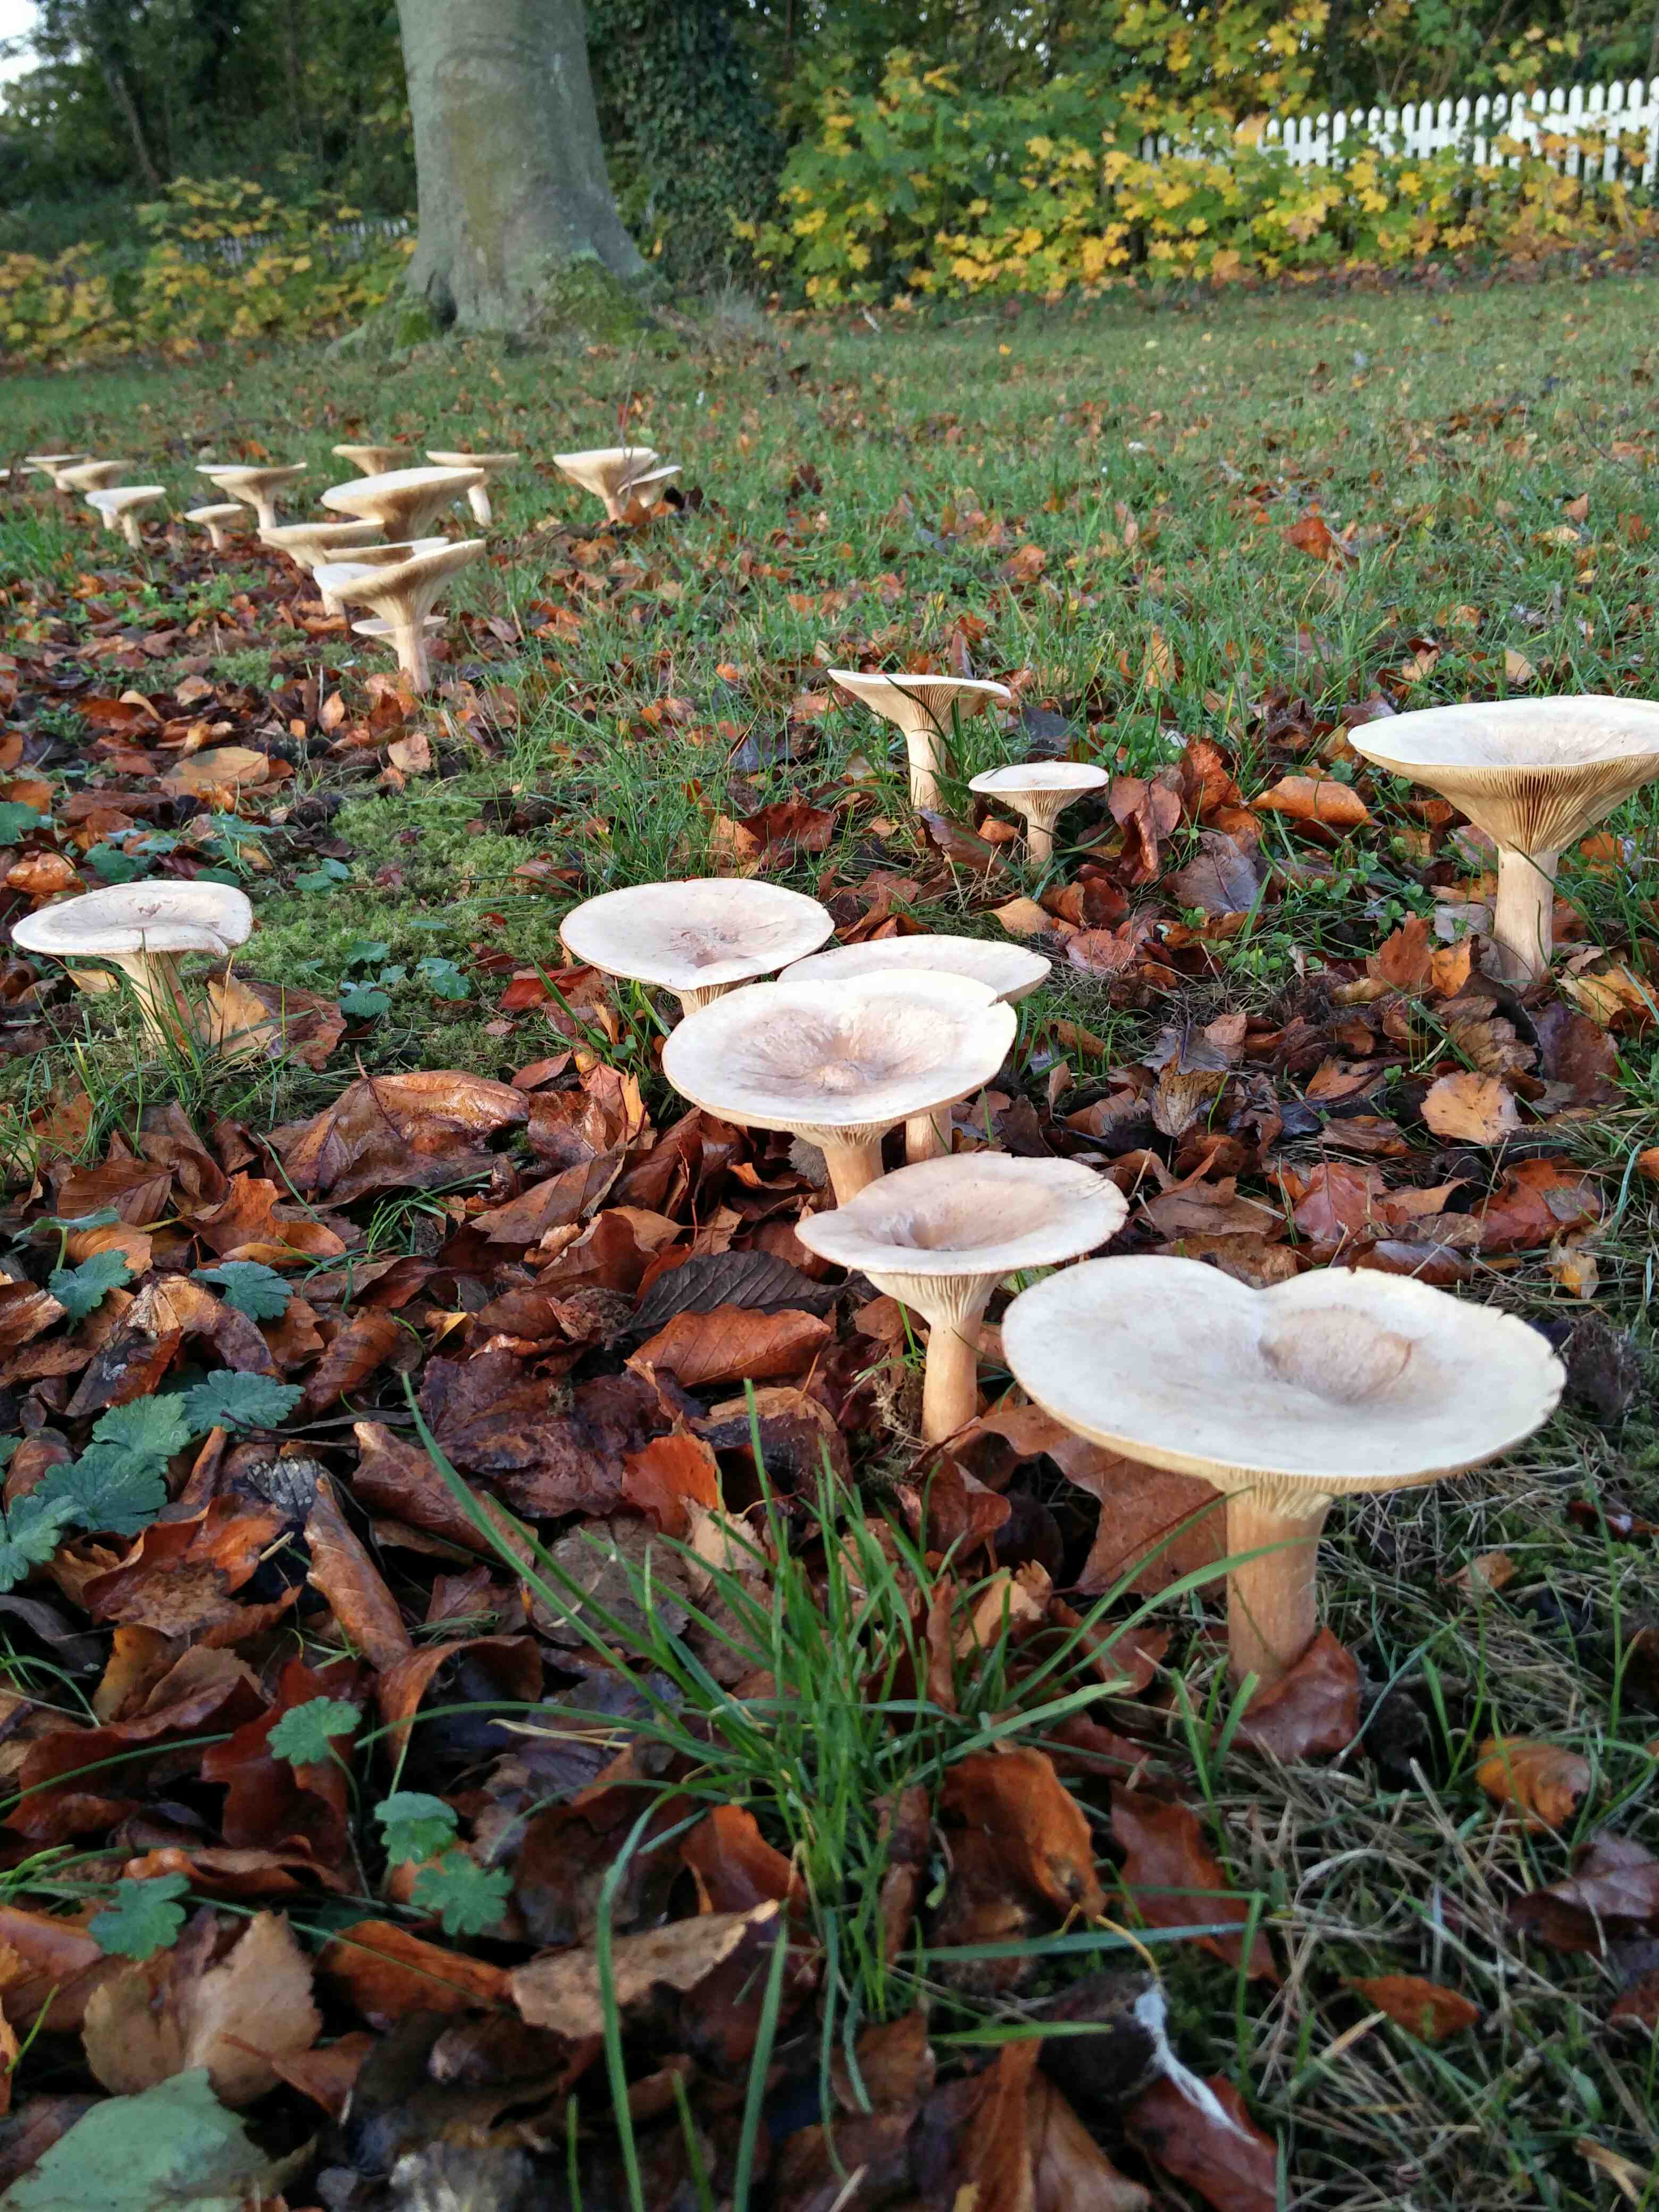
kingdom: Fungi
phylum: Basidiomycota
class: Agaricomycetes
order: Agaricales
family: Tricholomataceae
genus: Infundibulicybe
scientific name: Infundibulicybe geotropa
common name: stor tragthat
